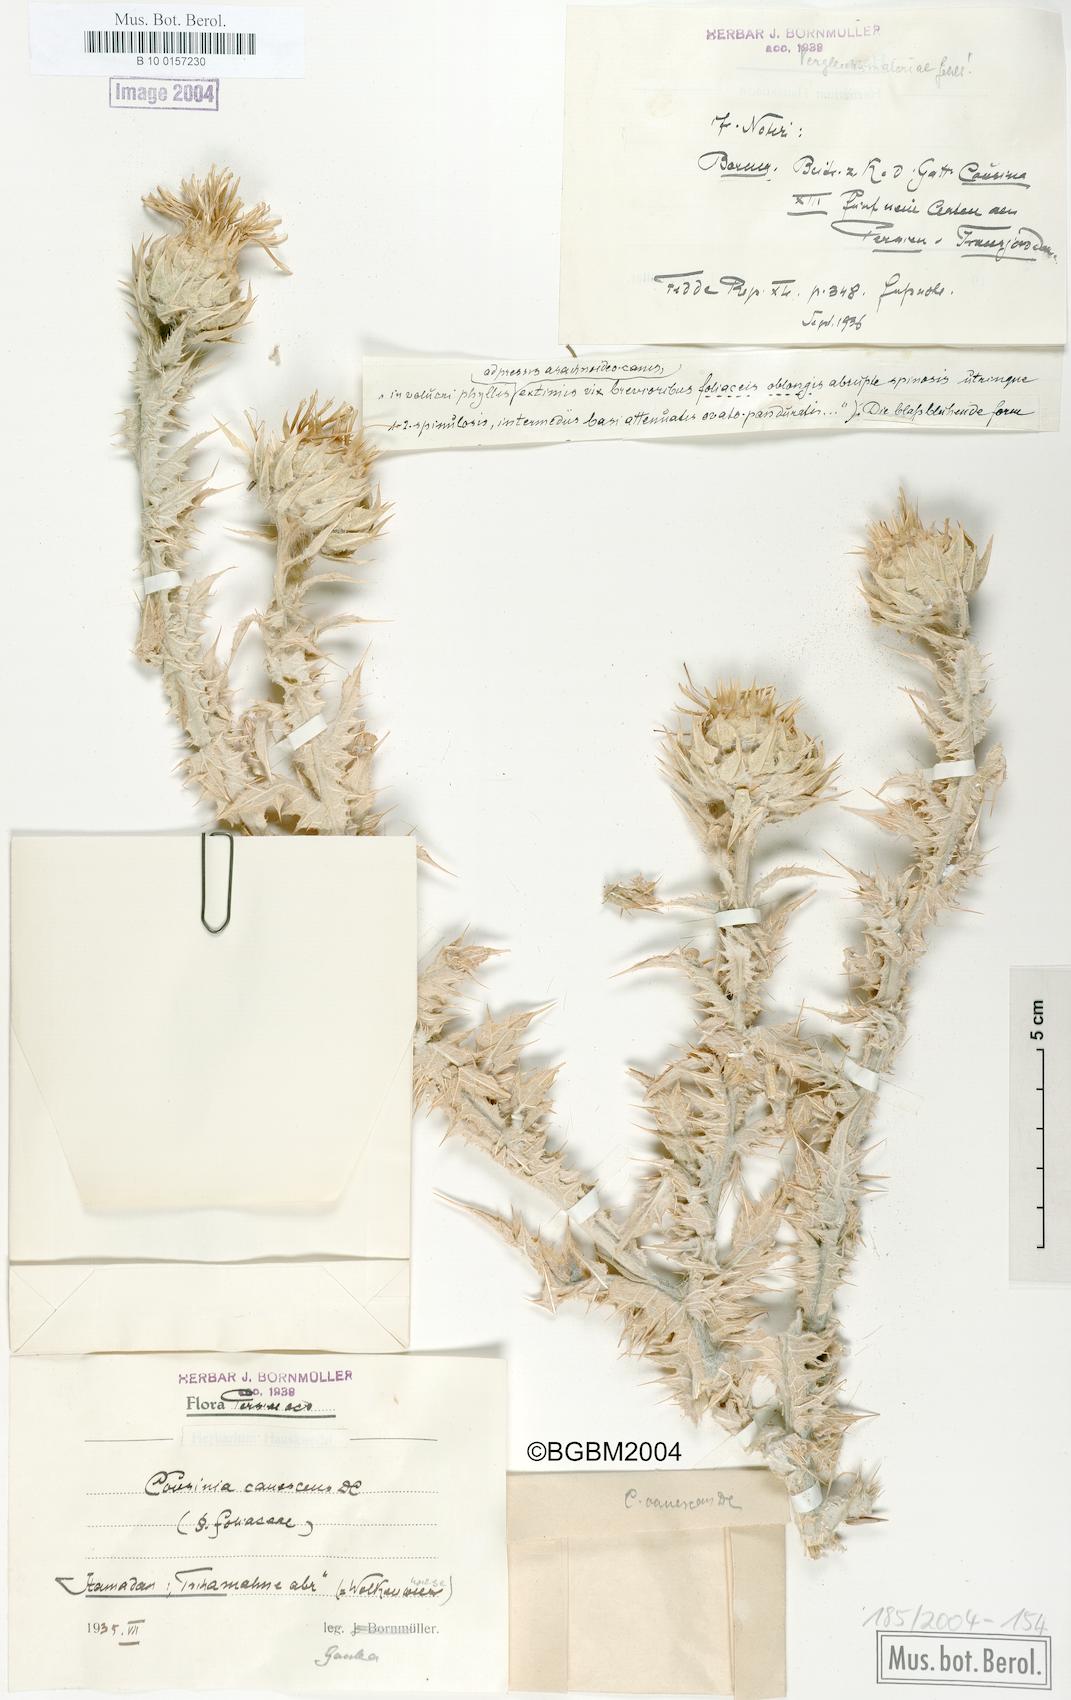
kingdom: Plantae
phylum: Tracheophyta
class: Magnoliopsida
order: Asterales
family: Asteraceae
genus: Cousinia
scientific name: Cousinia canescens
